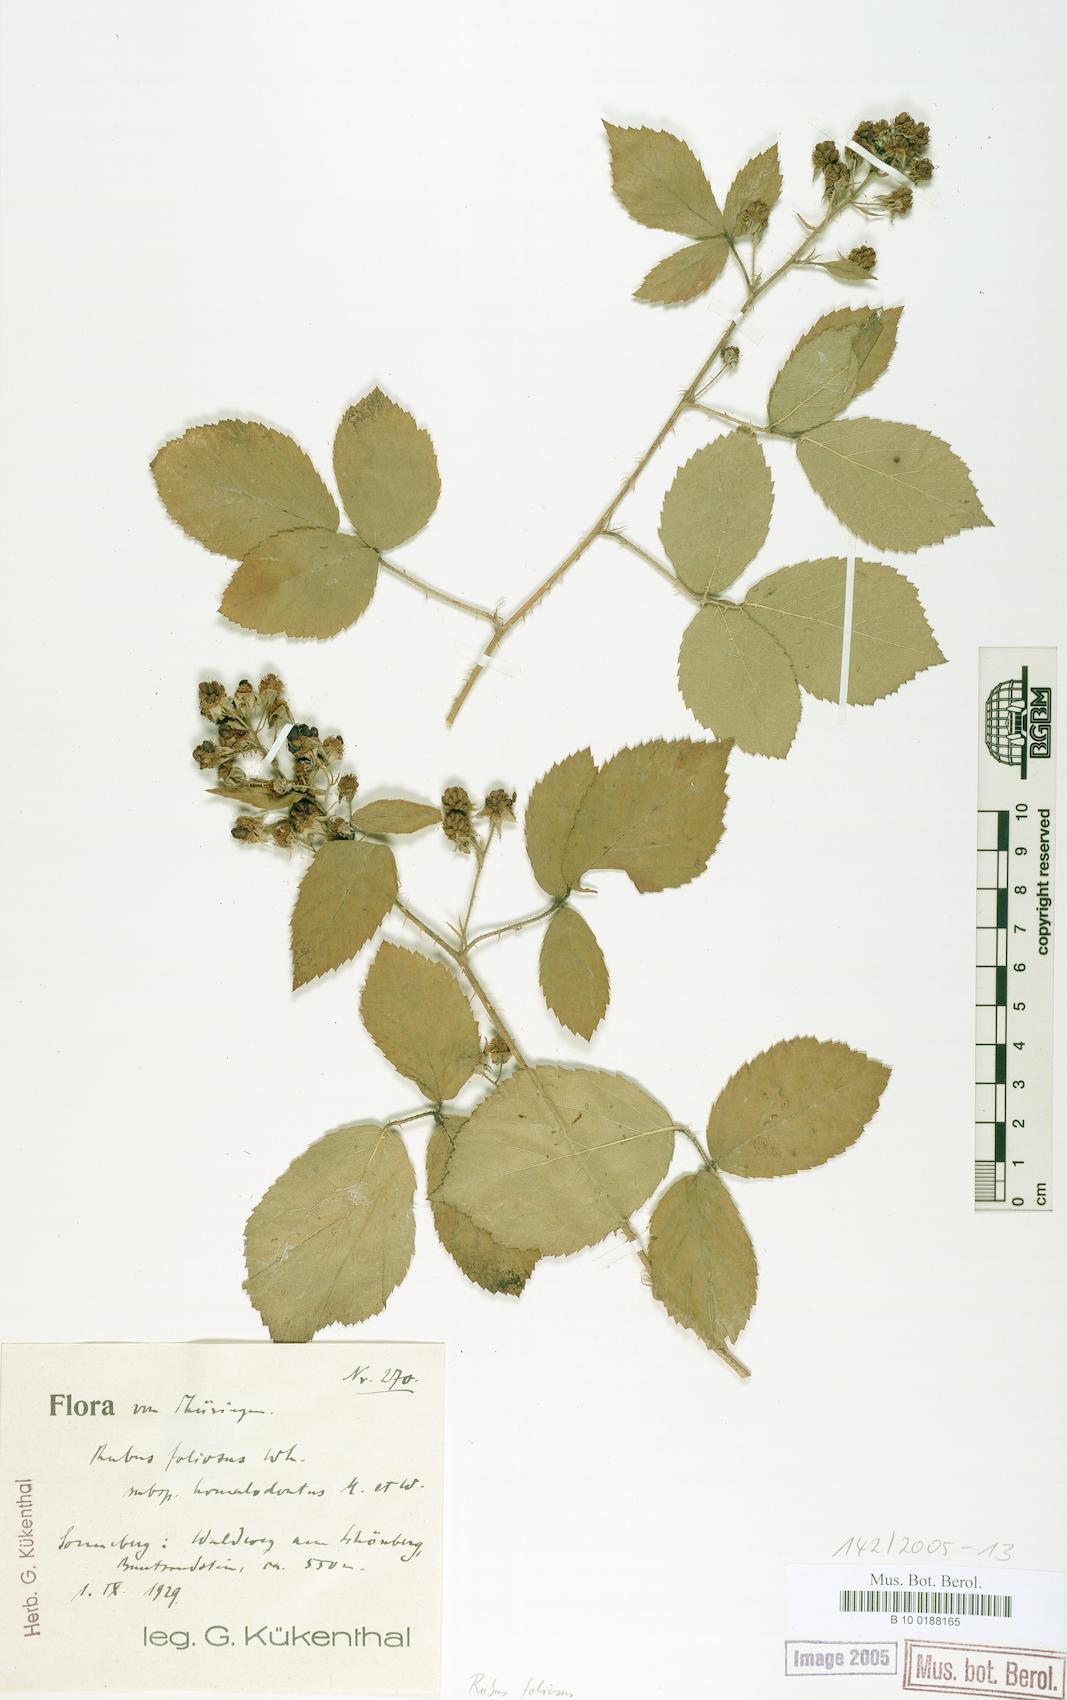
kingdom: Plantae
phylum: Tracheophyta
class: Magnoliopsida
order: Rosales
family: Rosaceae
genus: Rubus
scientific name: Rubus silvae-thuringiae
